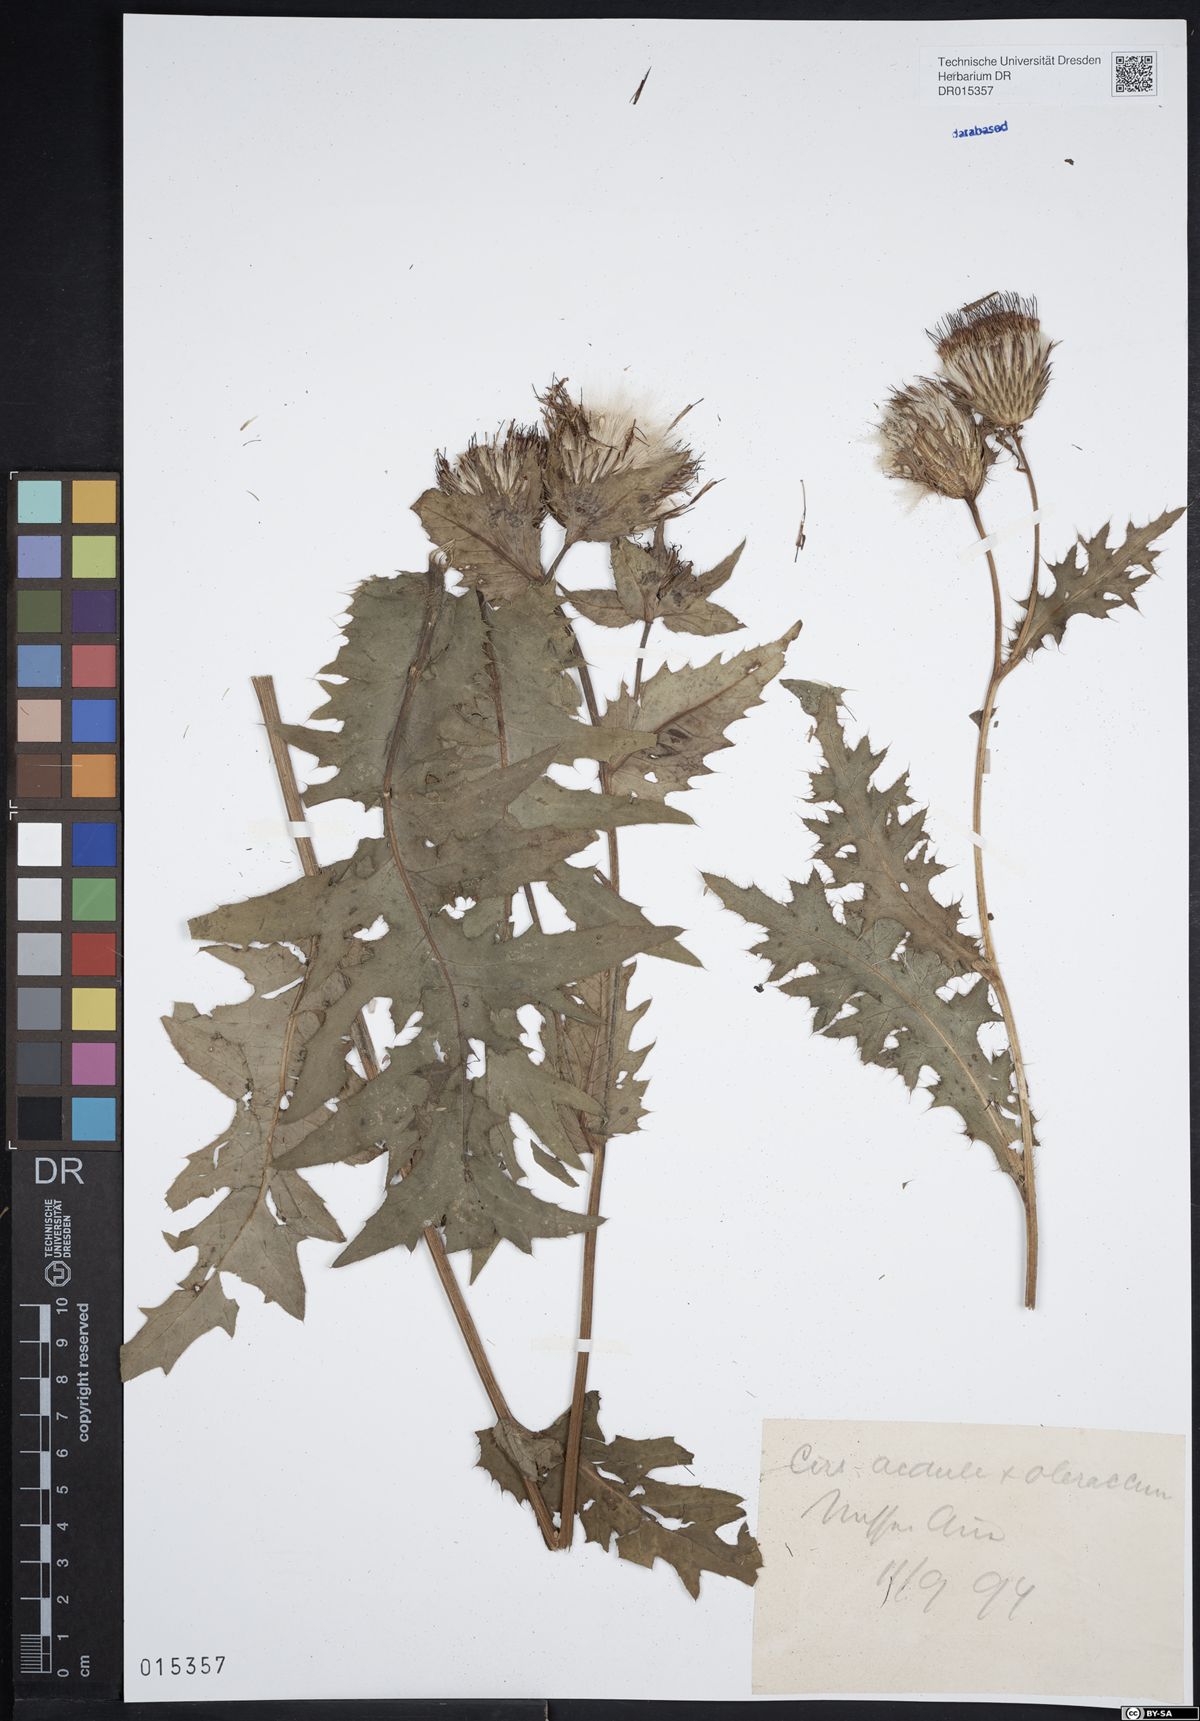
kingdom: Plantae
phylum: Tracheophyta
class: Magnoliopsida
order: Asterales
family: Asteraceae
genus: Cirsium
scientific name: Cirsium rigens
